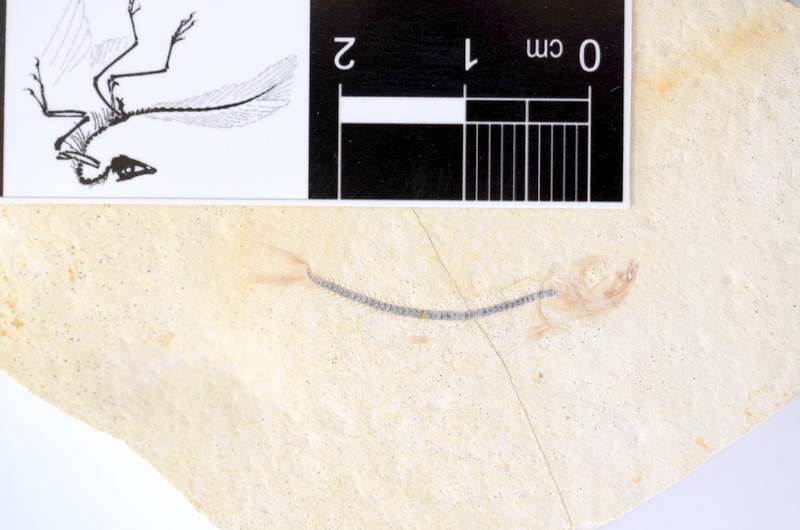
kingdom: Animalia
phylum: Chordata
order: Salmoniformes
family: Orthogonikleithridae
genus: Orthogonikleithrus
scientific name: Orthogonikleithrus hoelli
